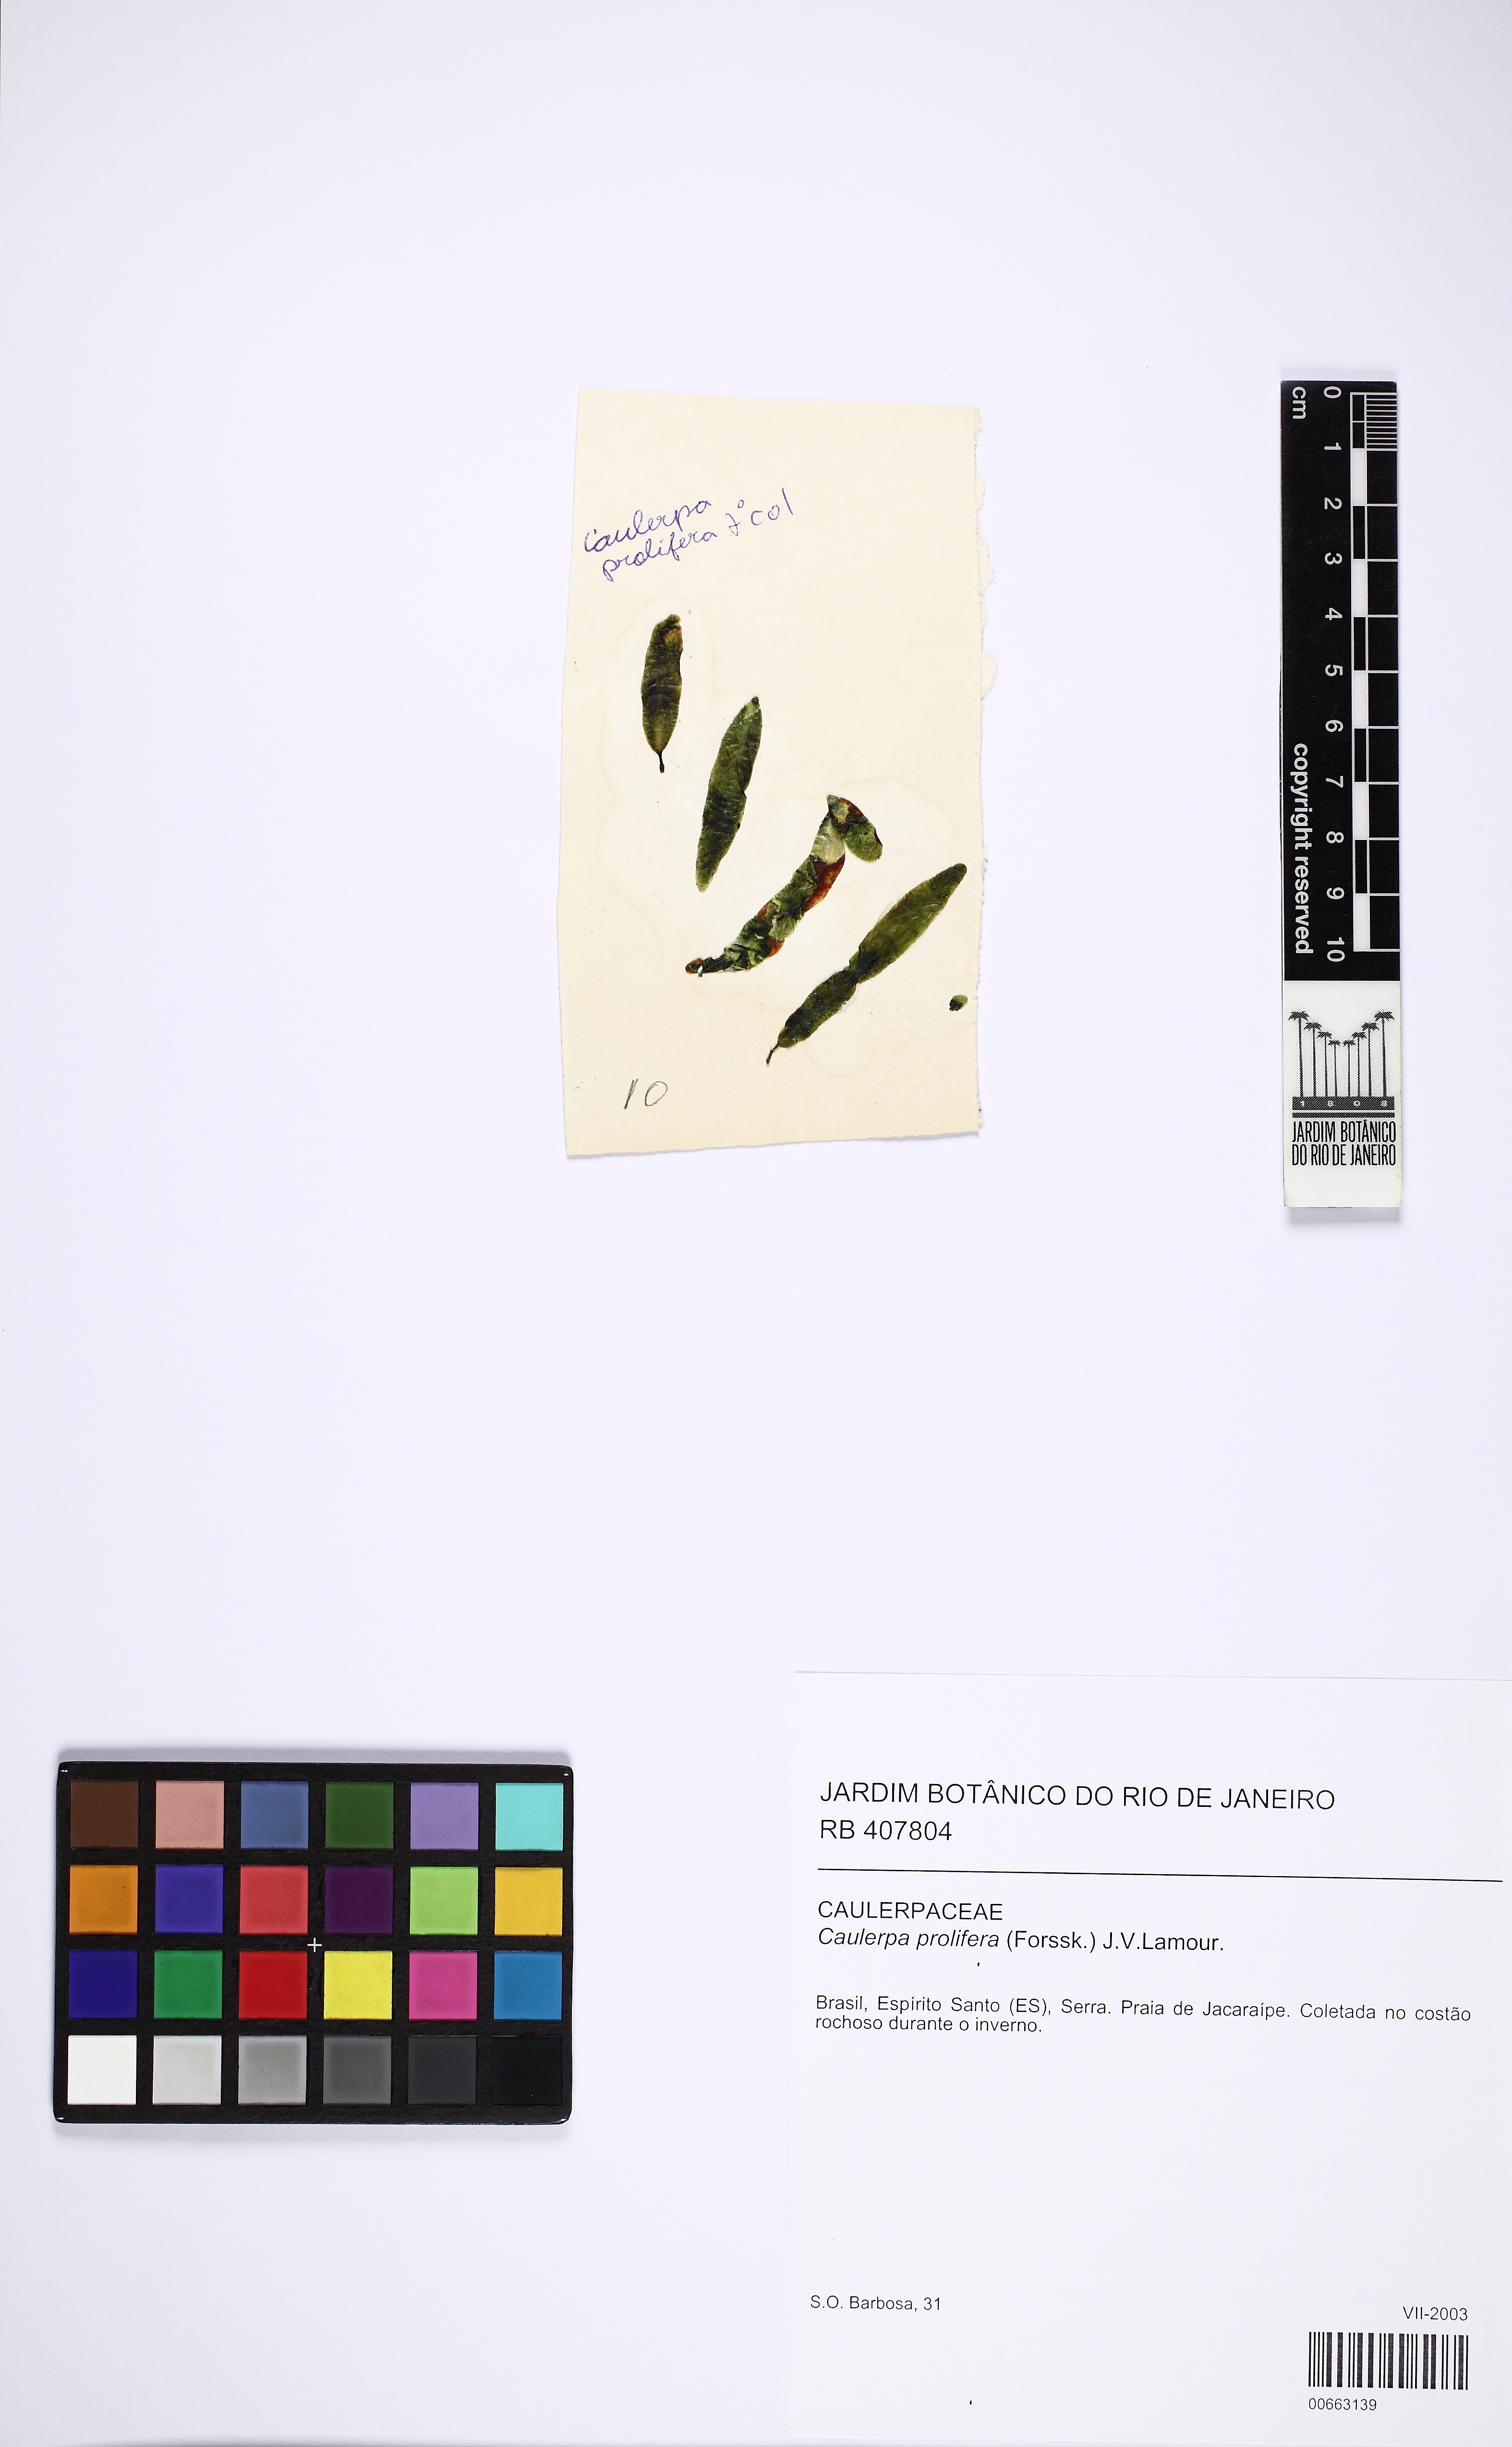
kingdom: Plantae
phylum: Chlorophyta
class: Ulvophyceae
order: Bryopsidales
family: Caulerpaceae
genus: Caulerpa
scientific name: Caulerpa prolifera
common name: Oval-blade algae
